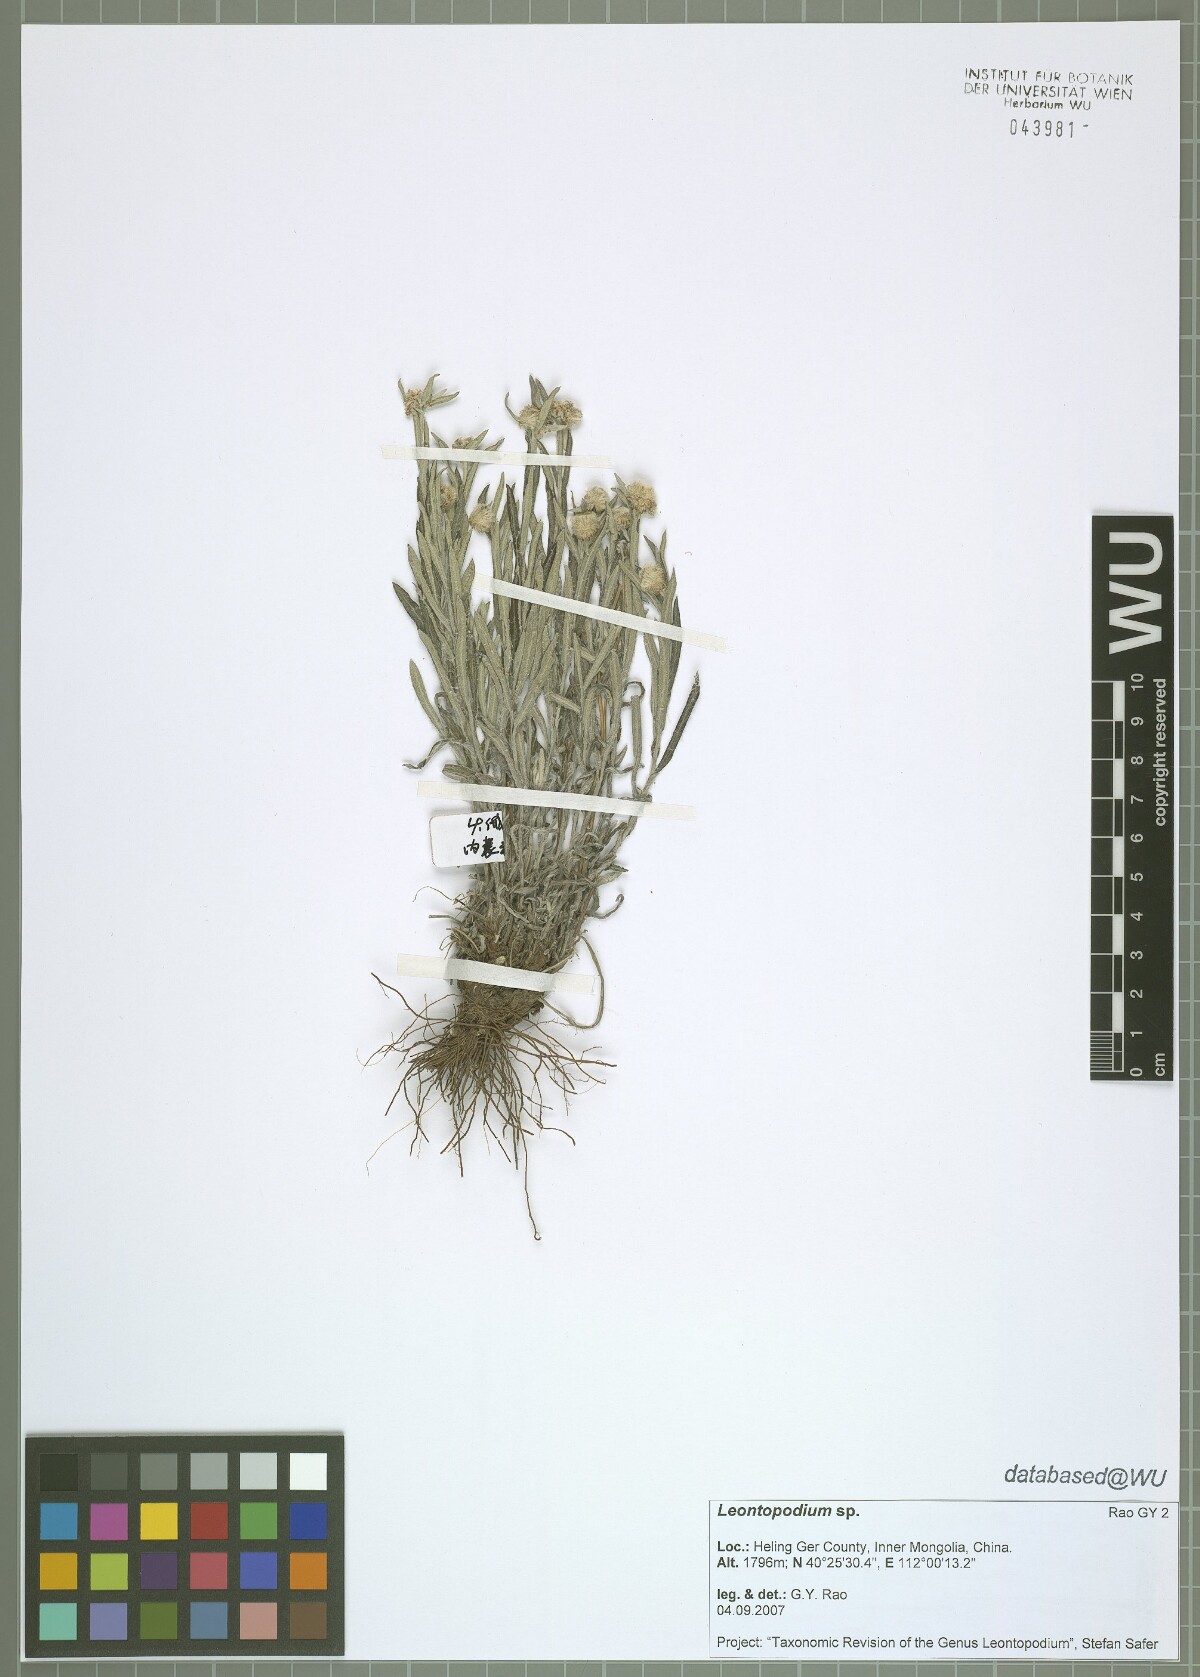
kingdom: Plantae
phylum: Tracheophyta
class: Magnoliopsida
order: Asterales
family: Asteraceae
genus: Leontopodium
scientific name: Leontopodium
